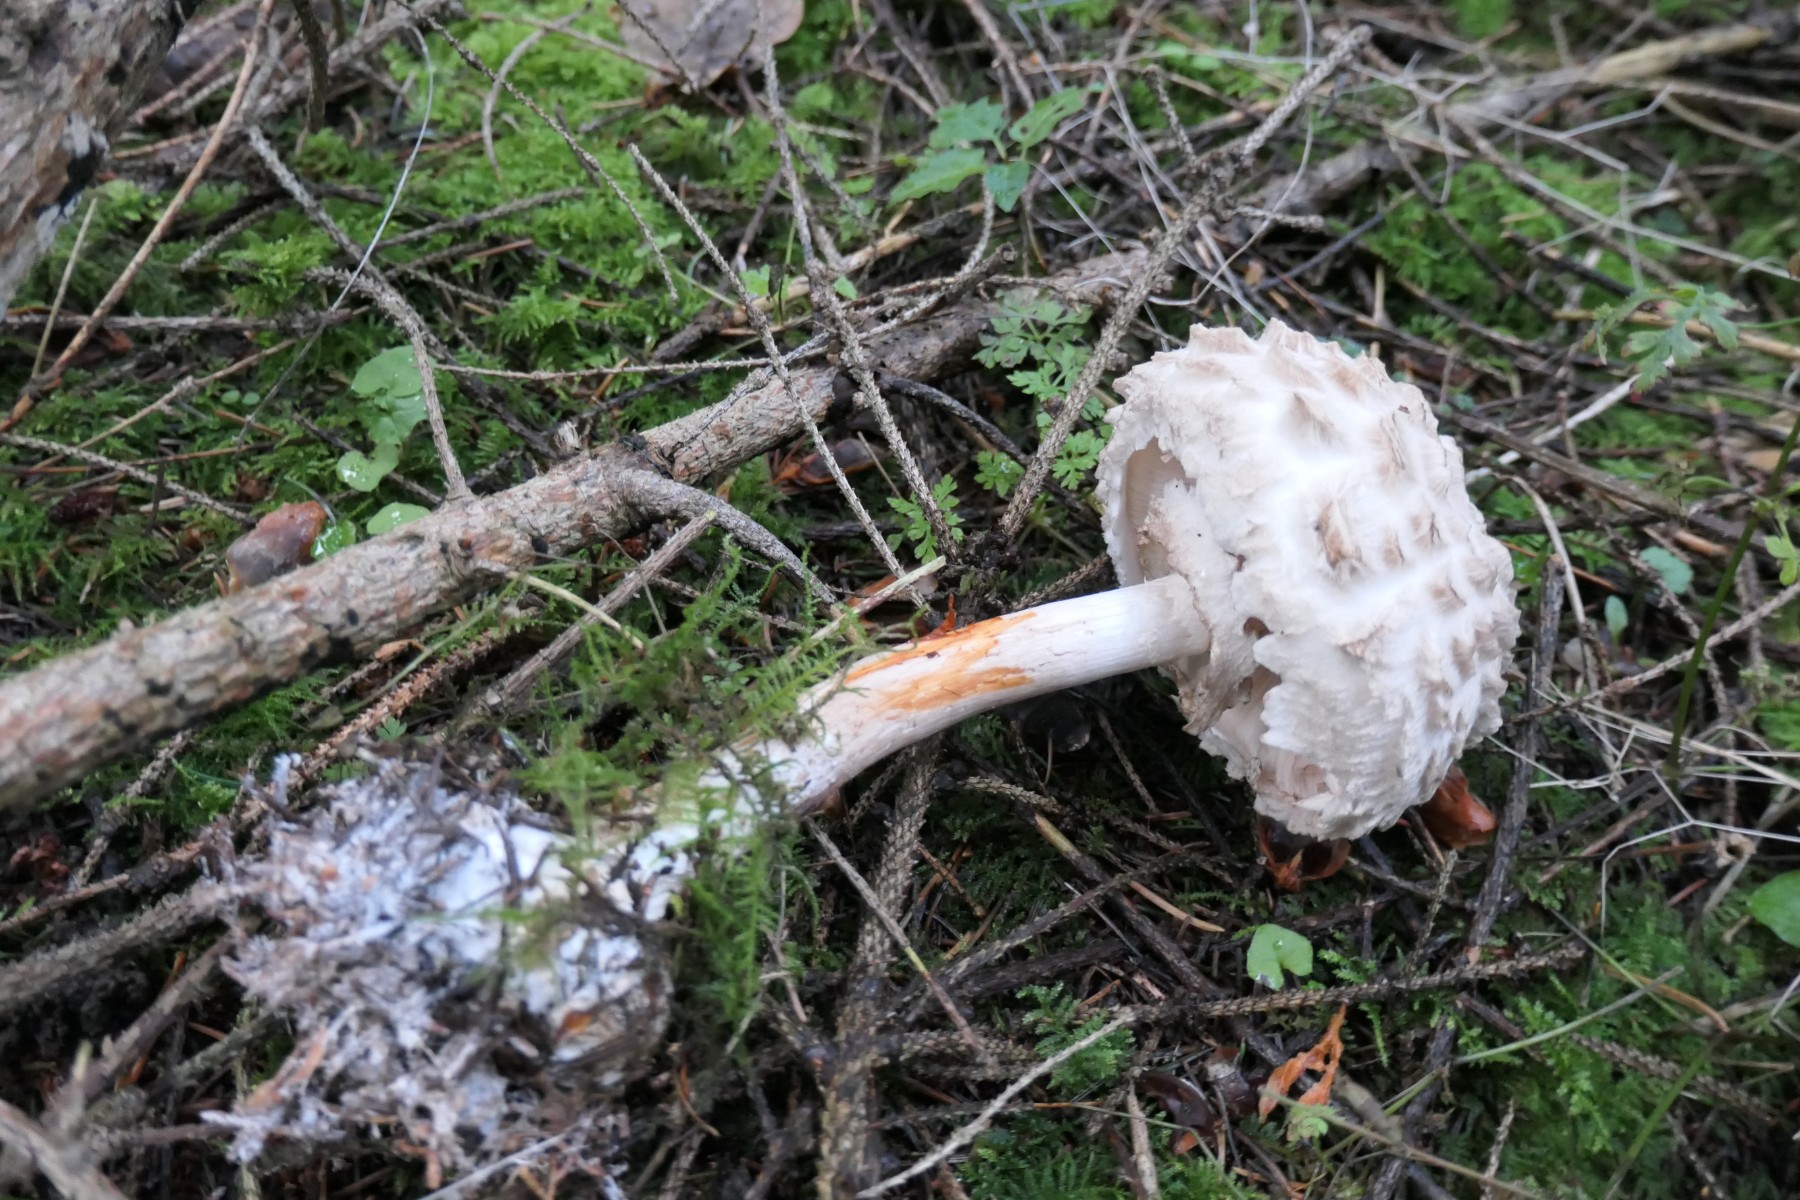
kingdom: Fungi
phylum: Basidiomycota
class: Agaricomycetes
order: Agaricales
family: Agaricaceae
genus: Chlorophyllum
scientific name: Chlorophyllum olivieri
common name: almindelig rabarberhat
